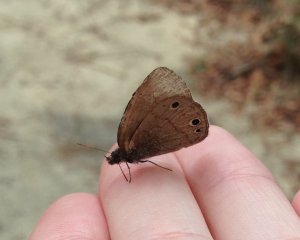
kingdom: Animalia
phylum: Arthropoda
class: Insecta
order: Lepidoptera
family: Nymphalidae
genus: Hermeuptychia
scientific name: Hermeuptychia hermes
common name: Carolina Satyr
